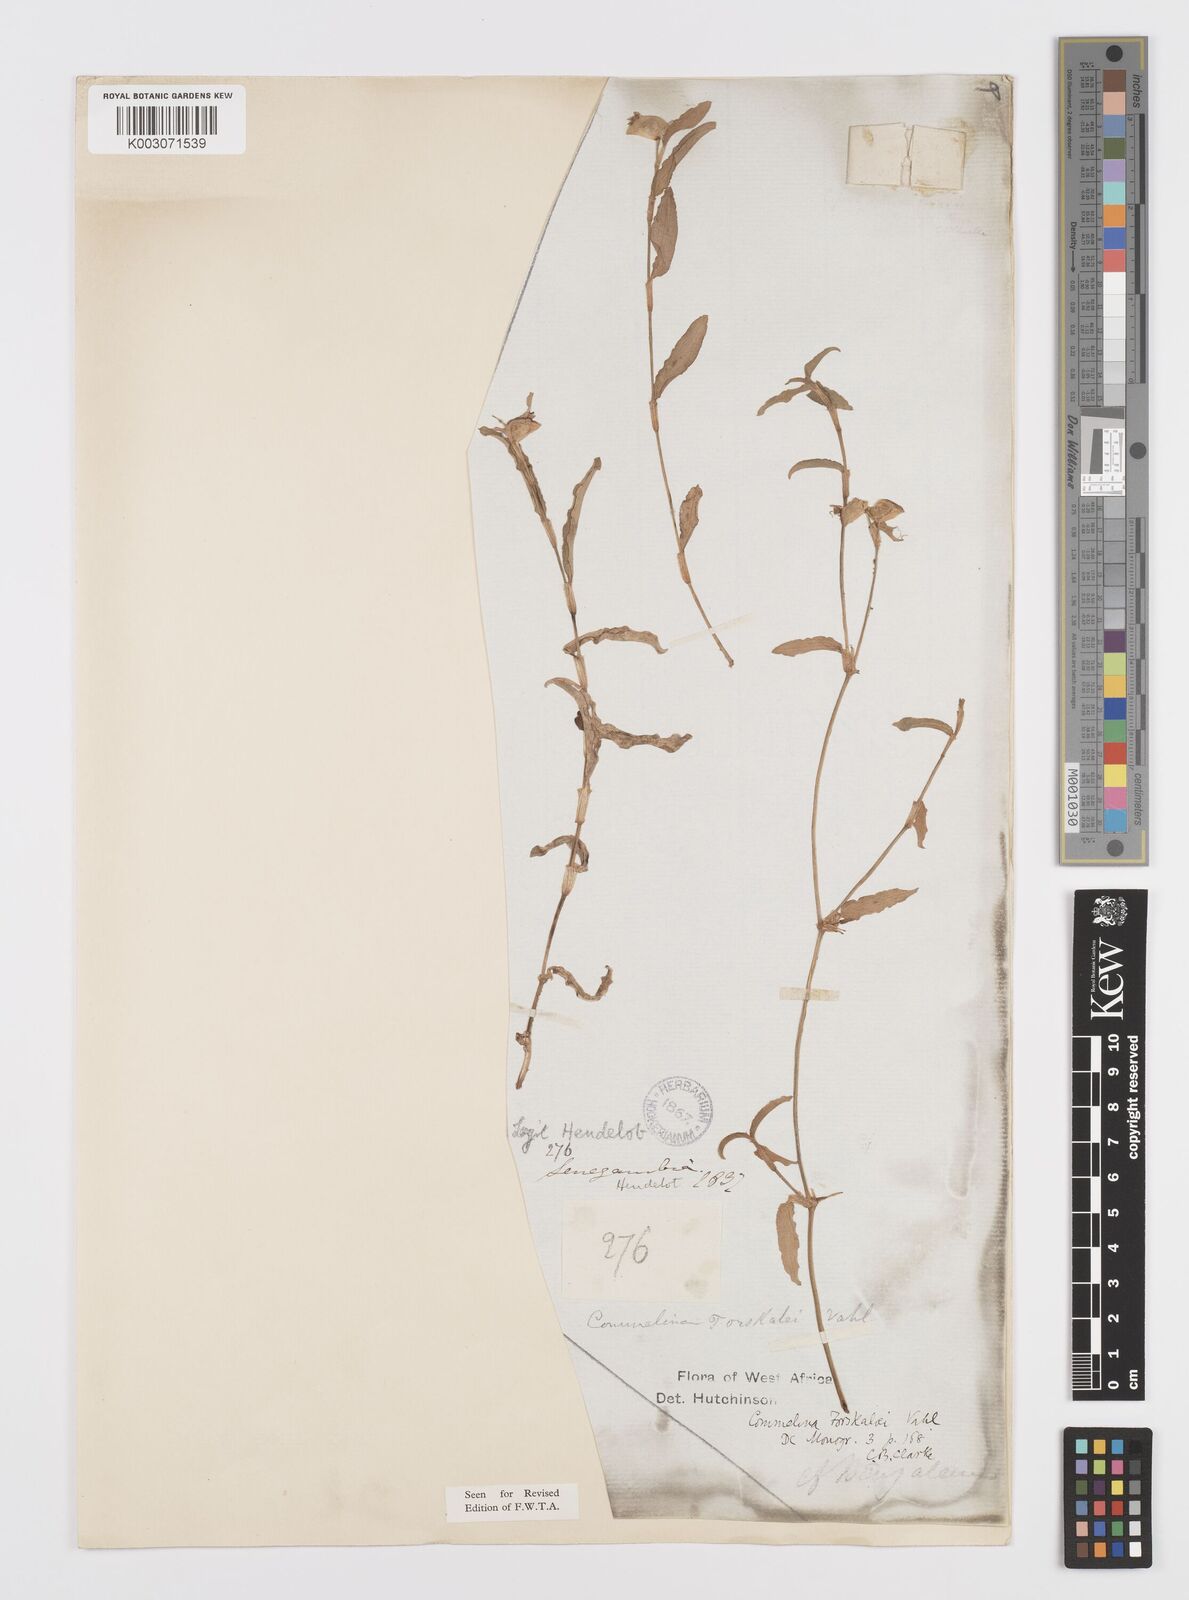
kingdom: Plantae
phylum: Tracheophyta
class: Liliopsida
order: Commelinales
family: Commelinaceae
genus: Commelina
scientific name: Commelina forskaolii
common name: Rat's ear
